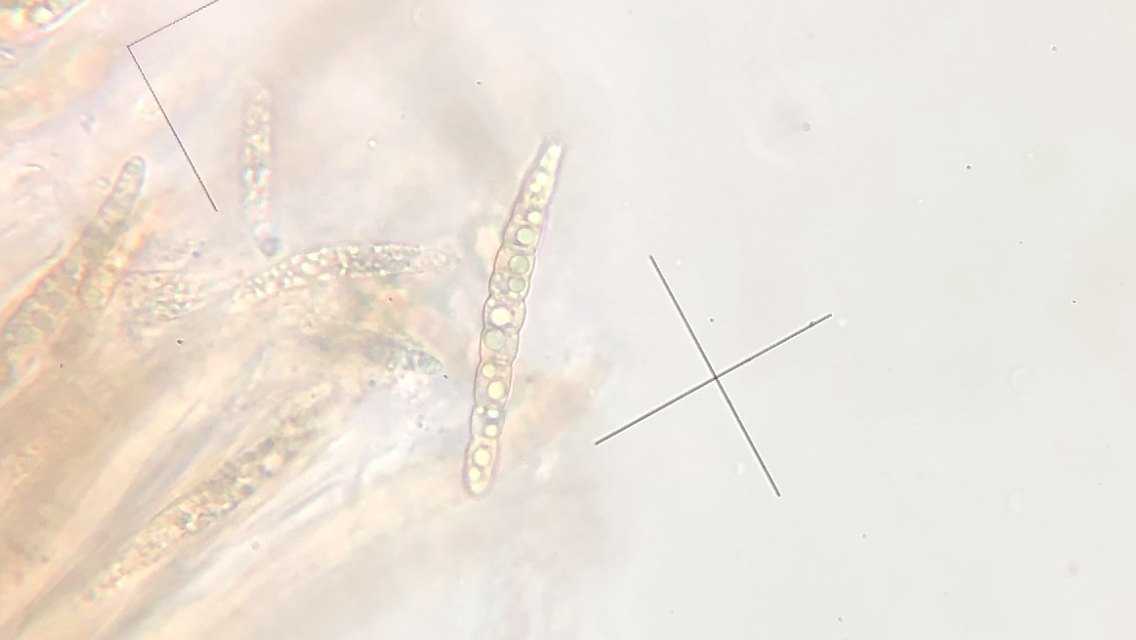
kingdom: Fungi
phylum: Ascomycota
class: Dothideomycetes
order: Pleosporales
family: Leptosphaeriaceae
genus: Leptosphaeria
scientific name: Leptosphaeria acuta
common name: spids kulkegle
